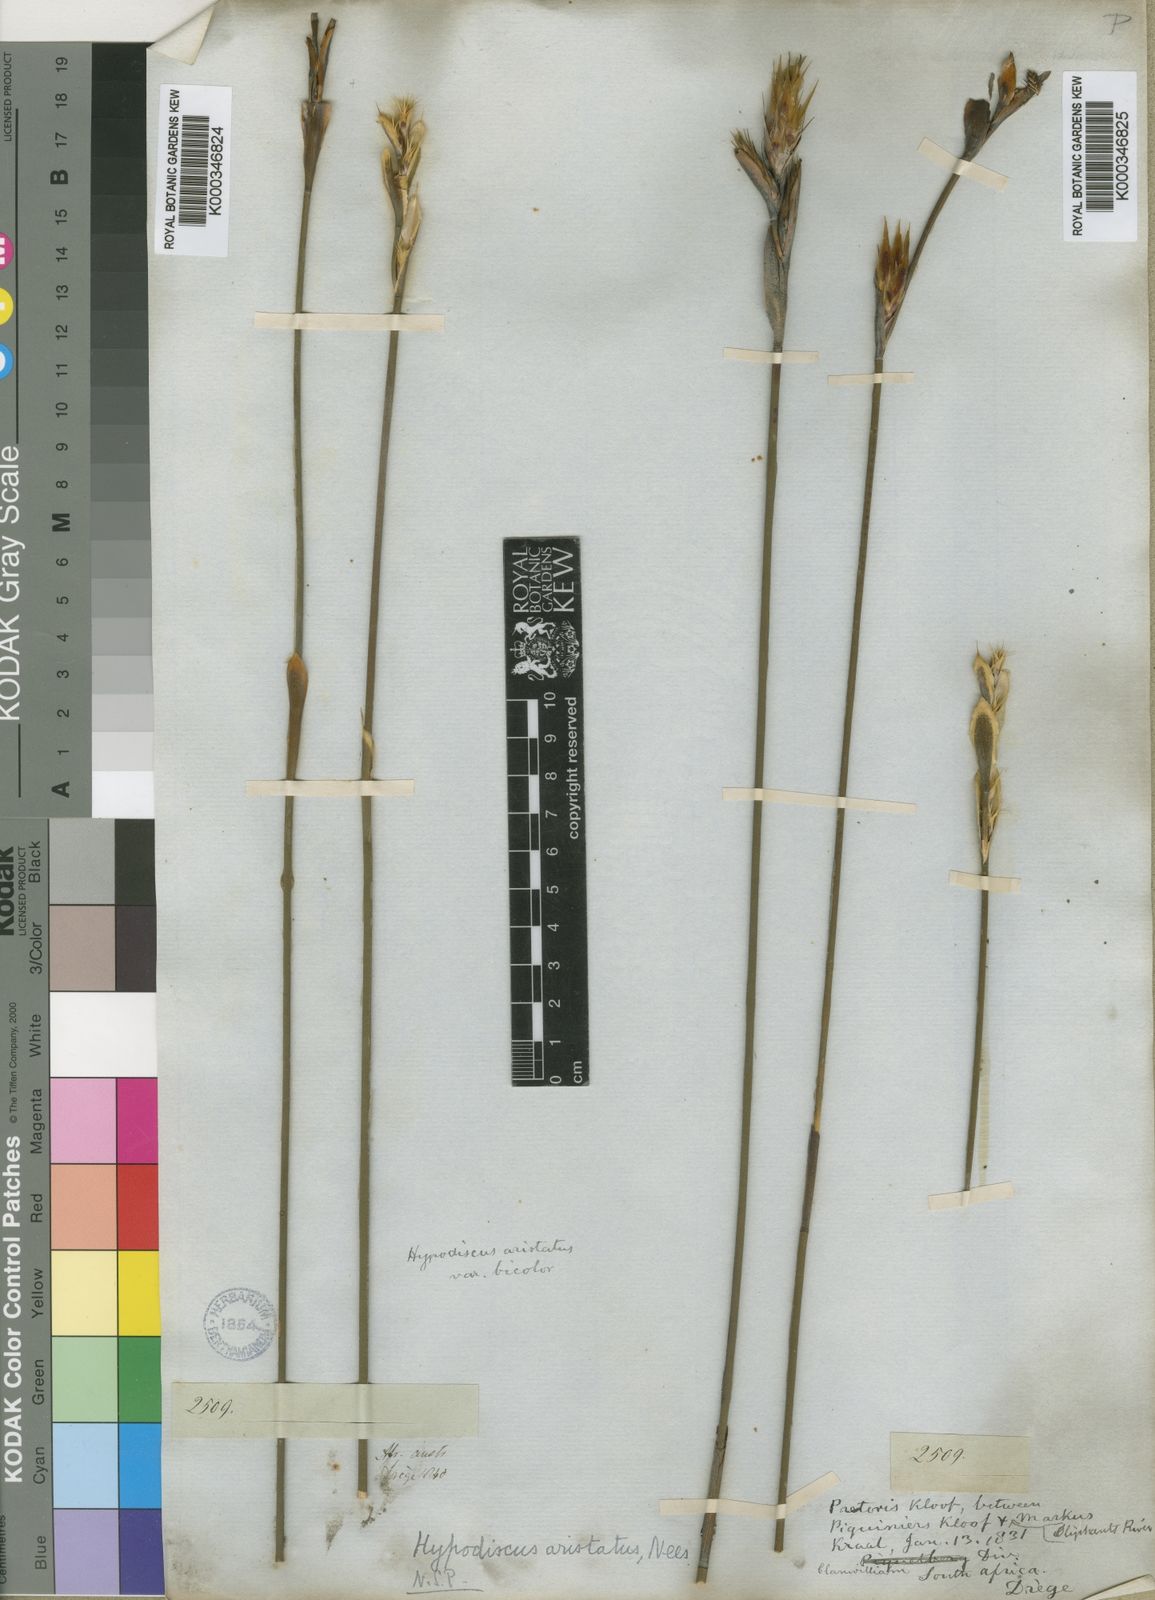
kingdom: Plantae
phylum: Tracheophyta
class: Liliopsida
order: Poales
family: Restionaceae
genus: Hypodiscus
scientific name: Hypodiscus aristatus
